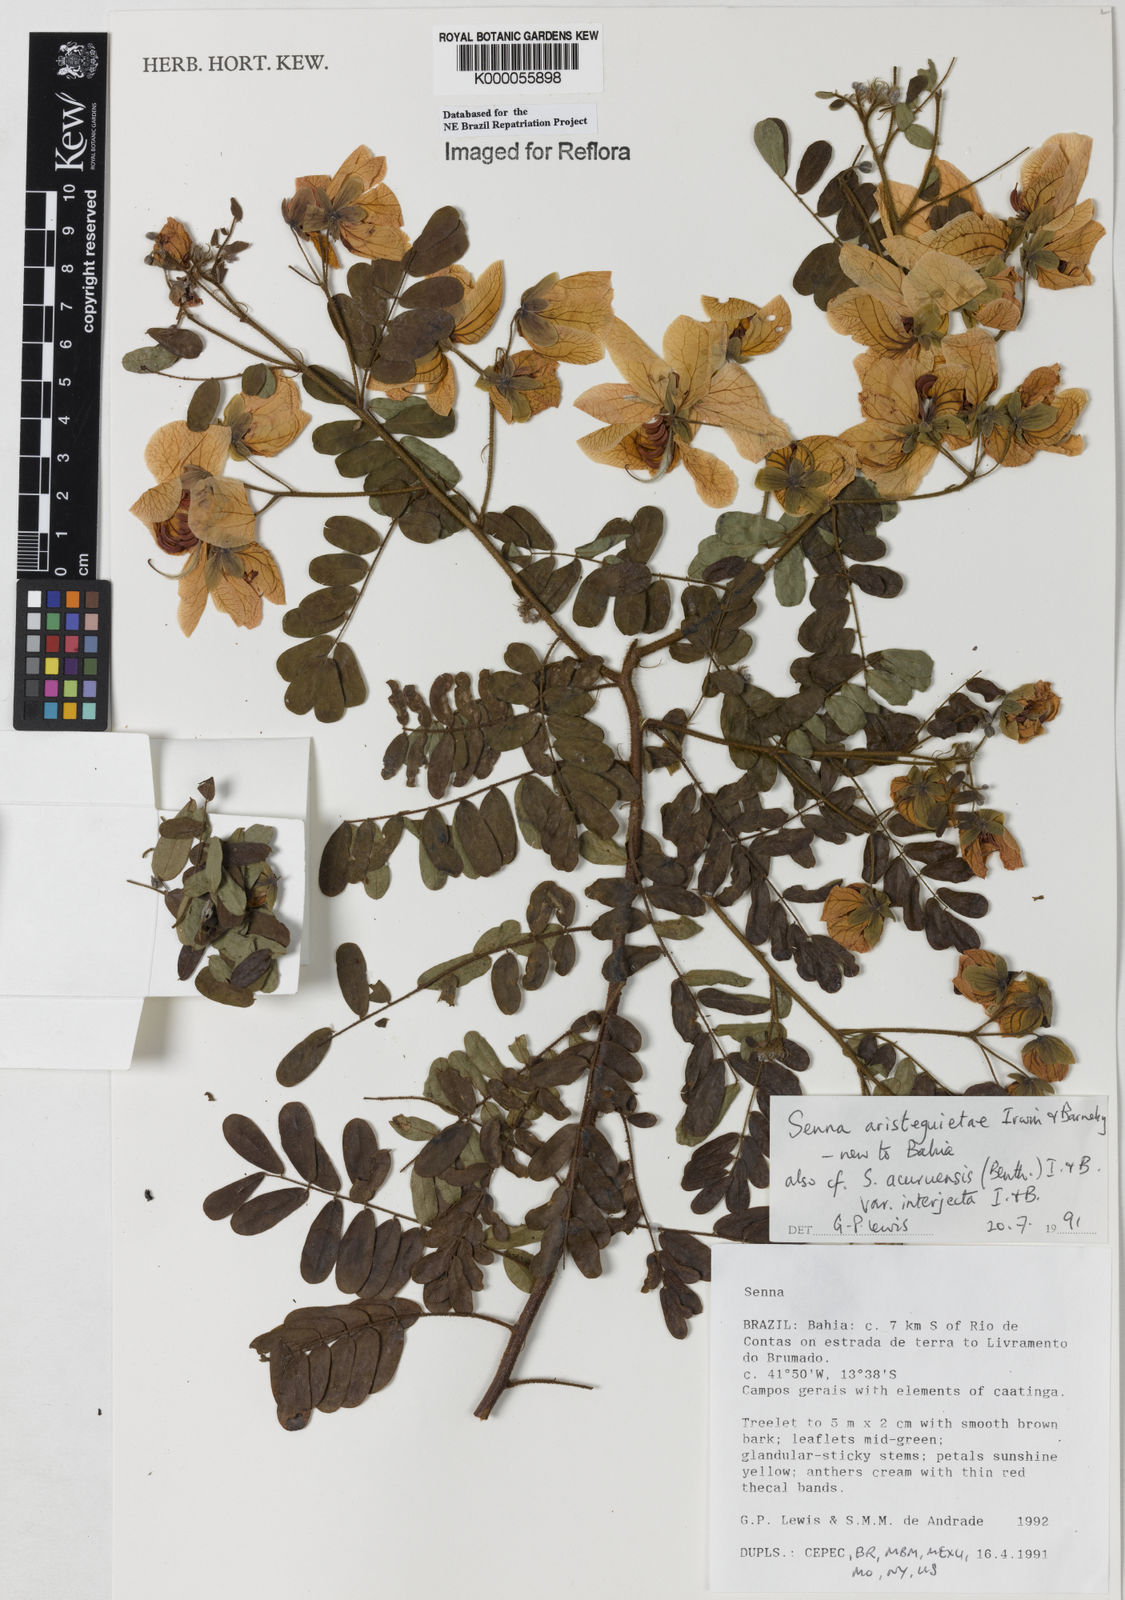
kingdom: Plantae
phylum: Tracheophyta
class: Magnoliopsida
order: Fabales
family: Fabaceae
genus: Senna
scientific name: Senna aristeguietae
